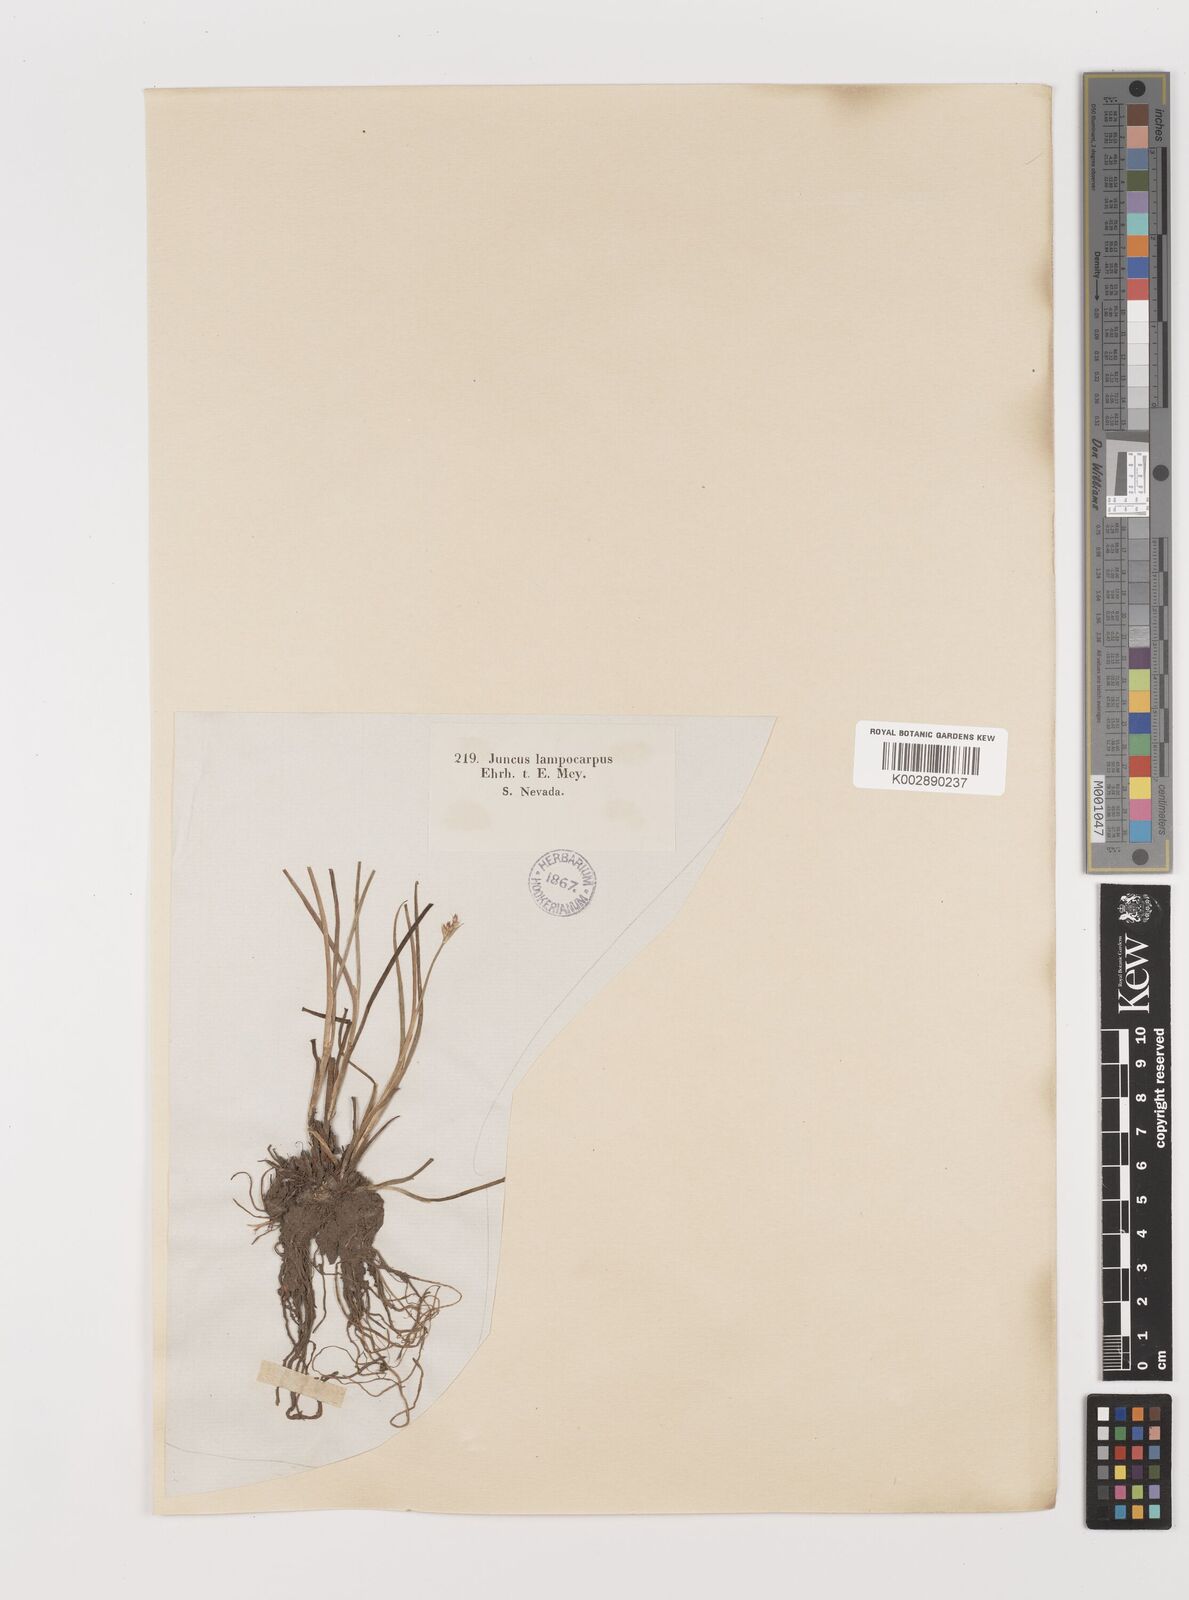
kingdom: Plantae
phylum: Tracheophyta
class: Liliopsida
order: Poales
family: Juncaceae
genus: Juncus
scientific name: Juncus articulatus
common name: Jointed rush
